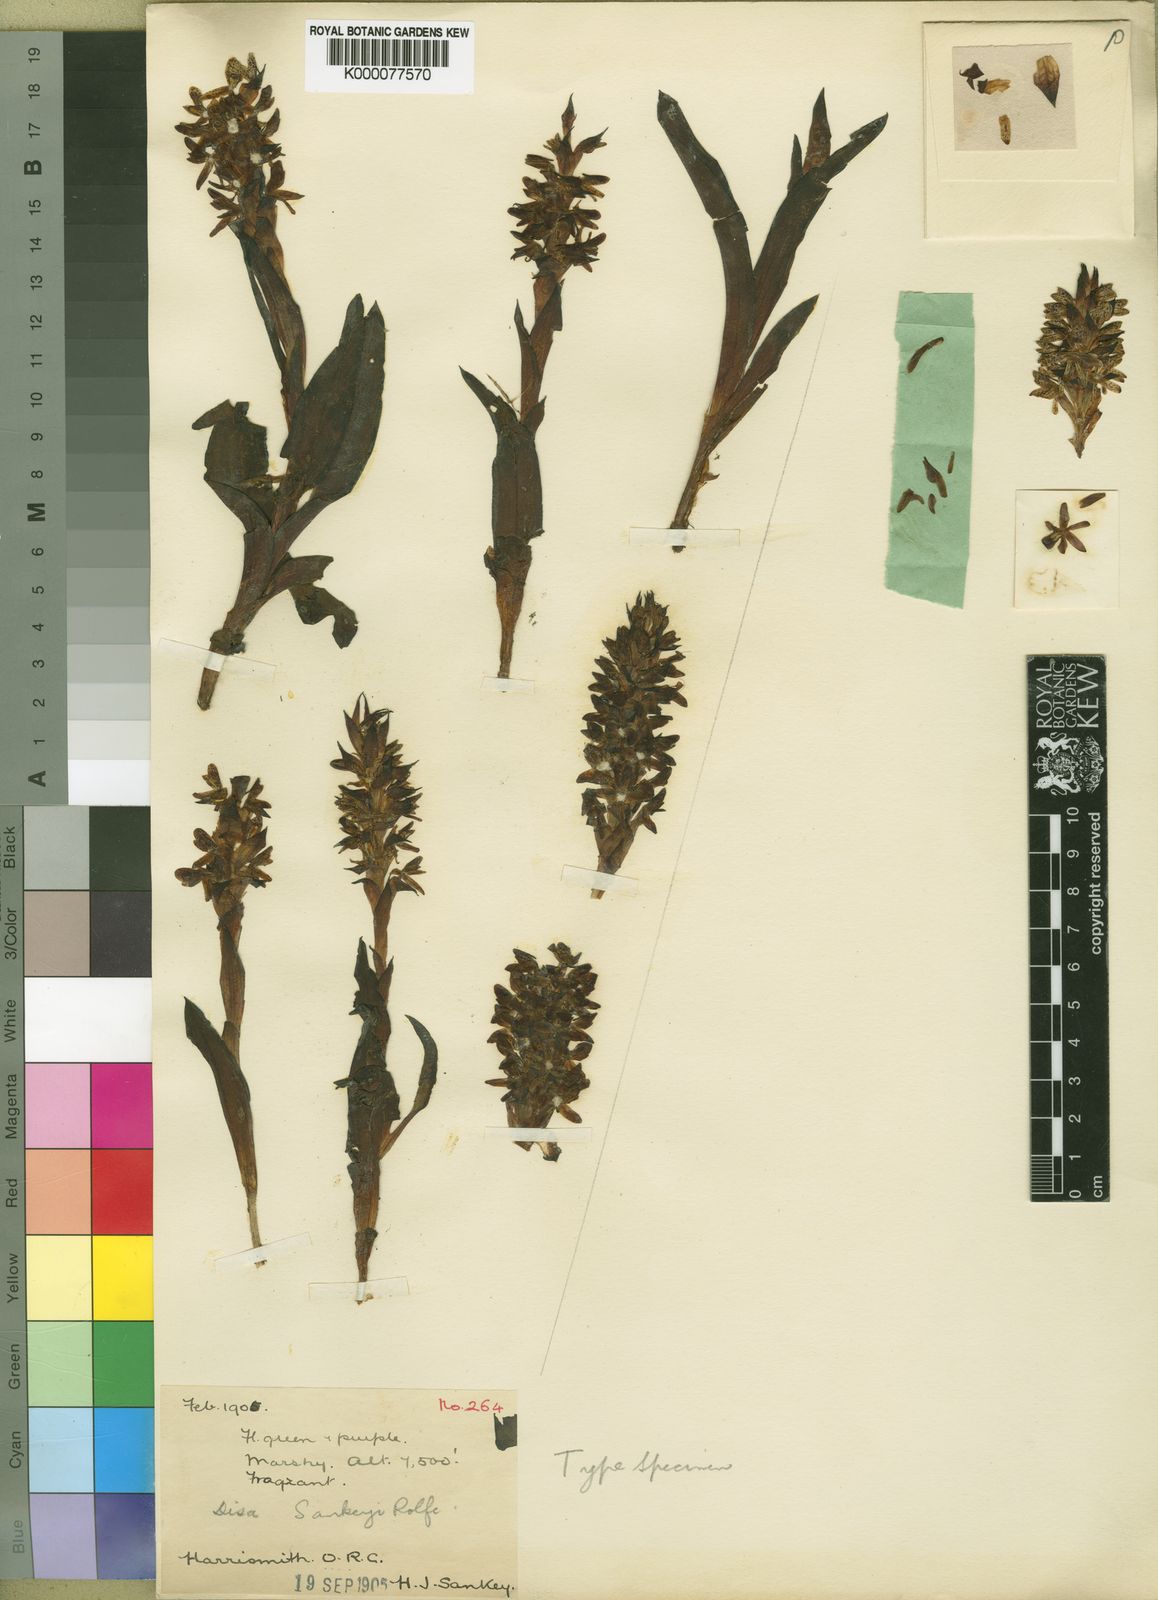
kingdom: Plantae
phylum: Tracheophyta
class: Liliopsida
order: Asparagales
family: Orchidaceae
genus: Disa
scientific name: Disa sankeyi
